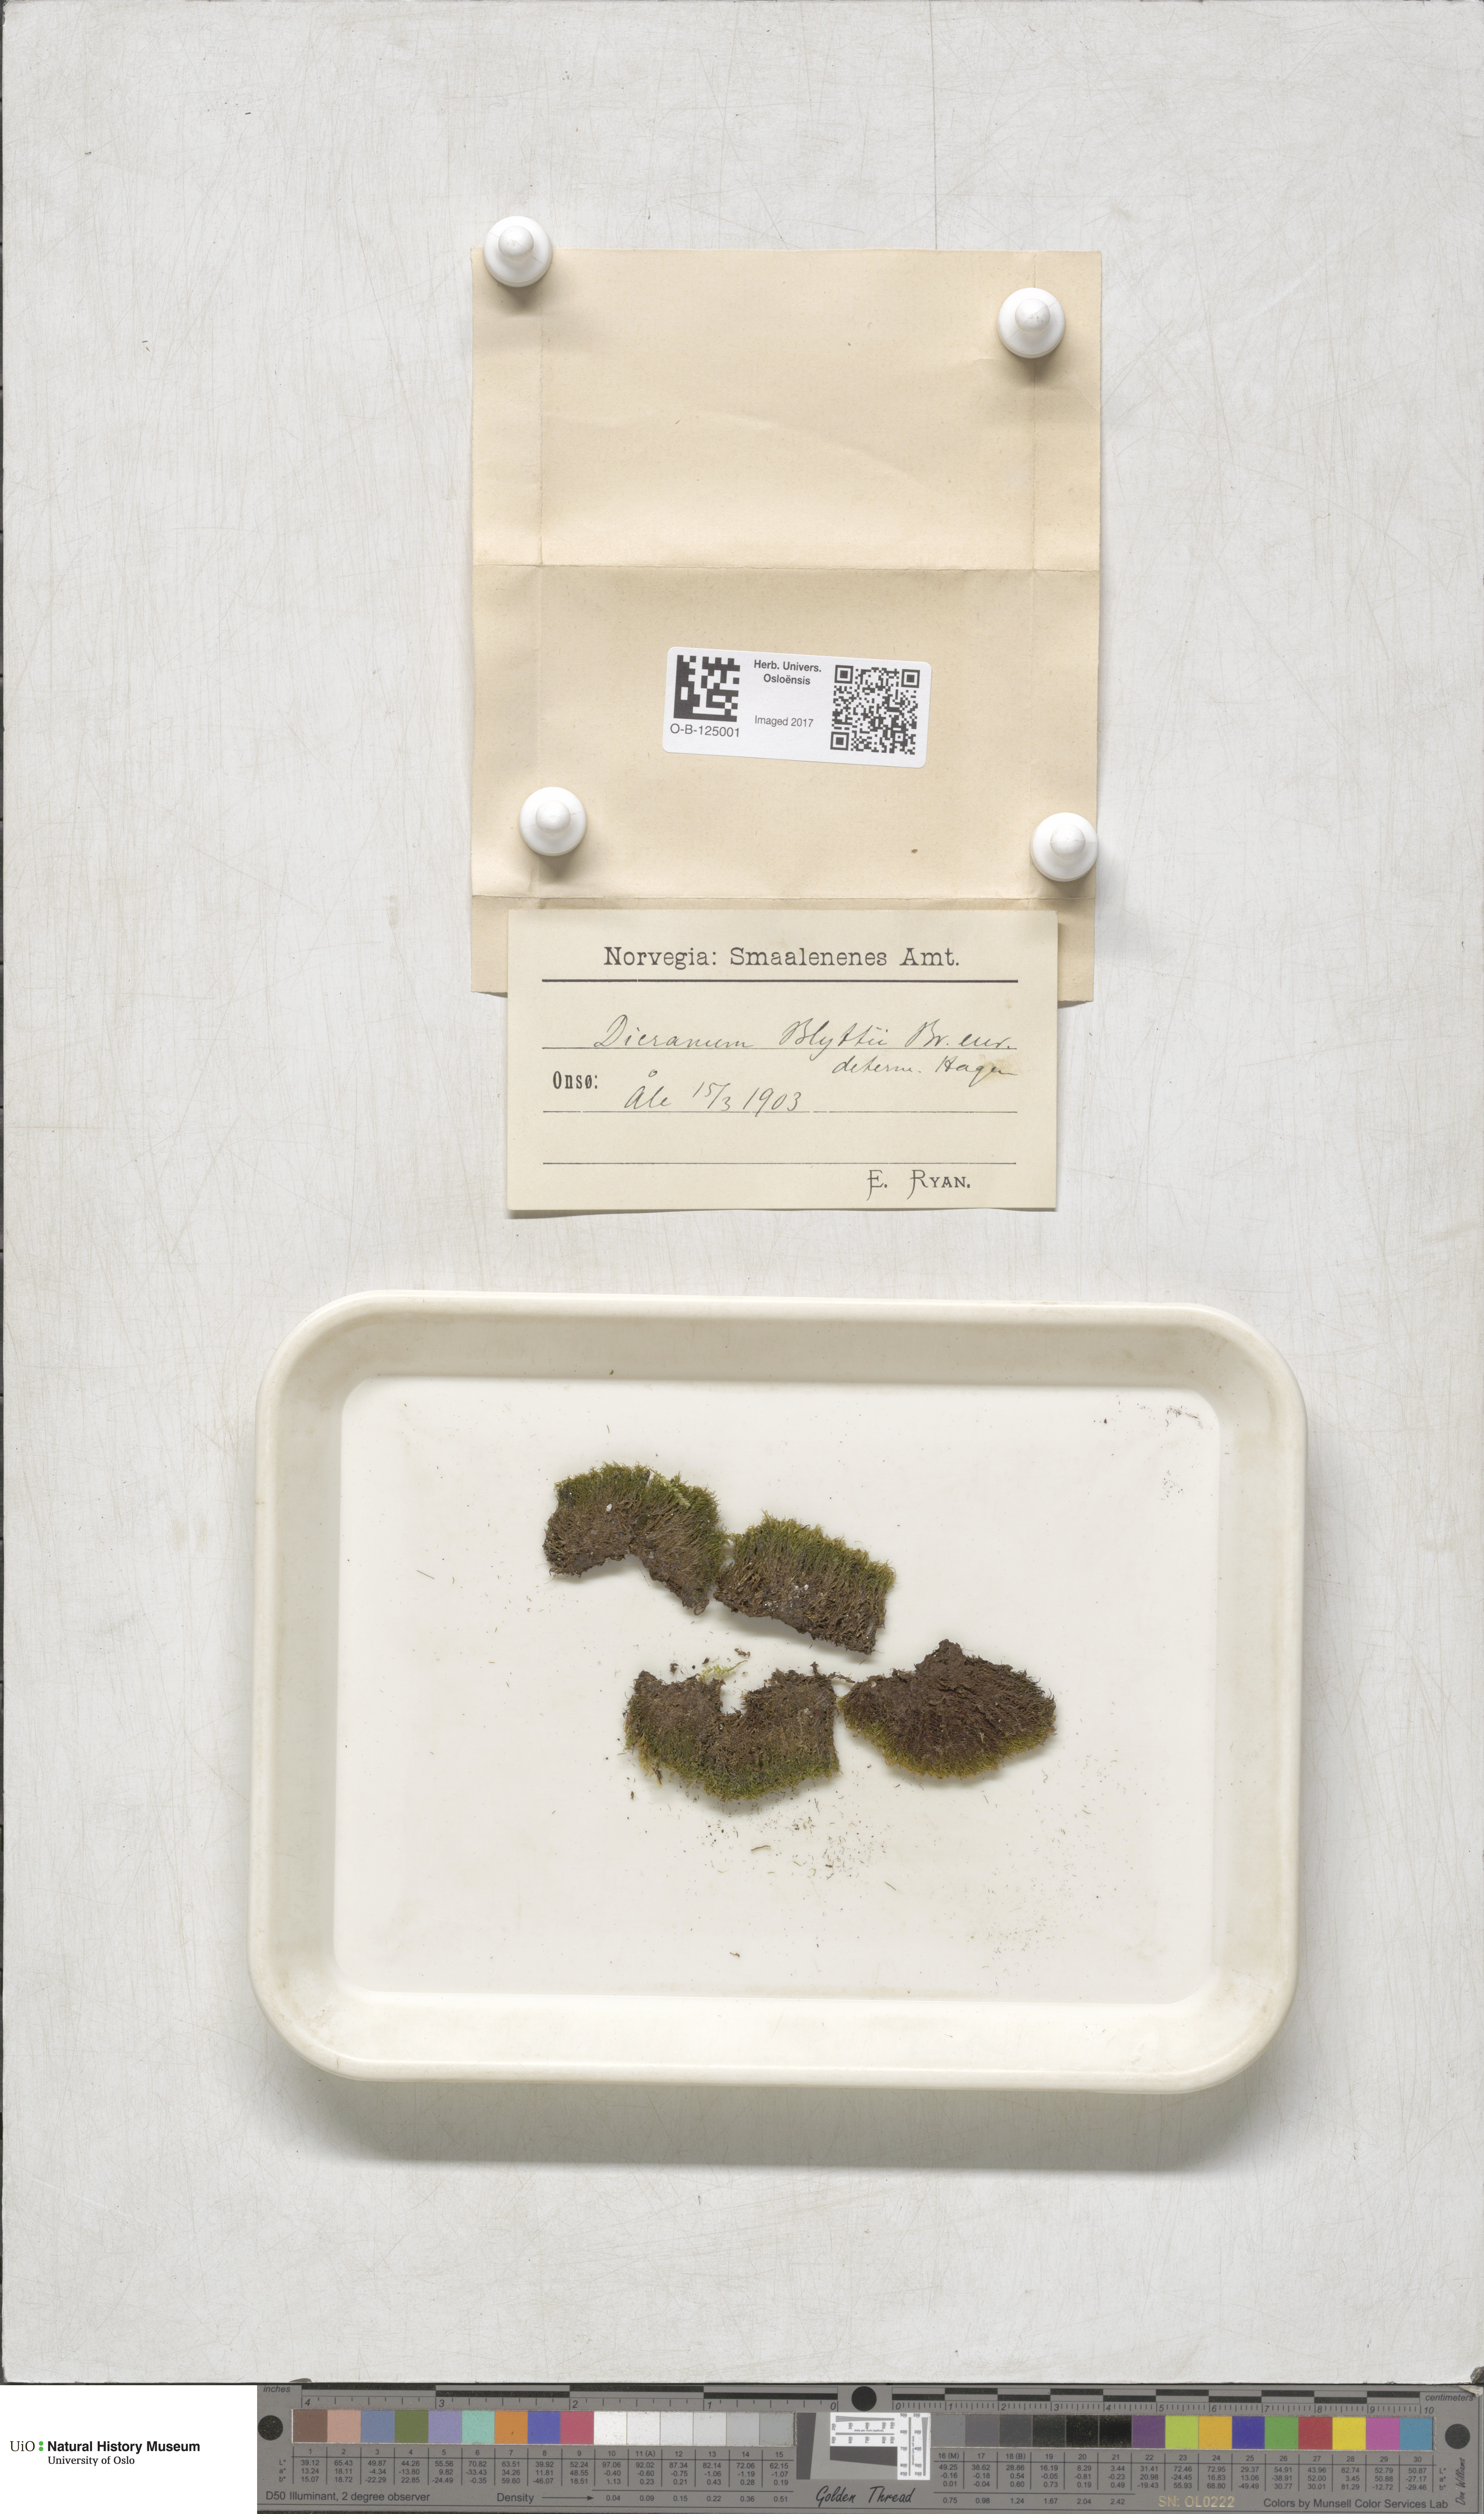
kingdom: Plantae
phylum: Bryophyta
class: Bryopsida
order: Dicranales
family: Rhabdoweisiaceae
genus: Arctoa
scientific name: Arctoa blyttii
